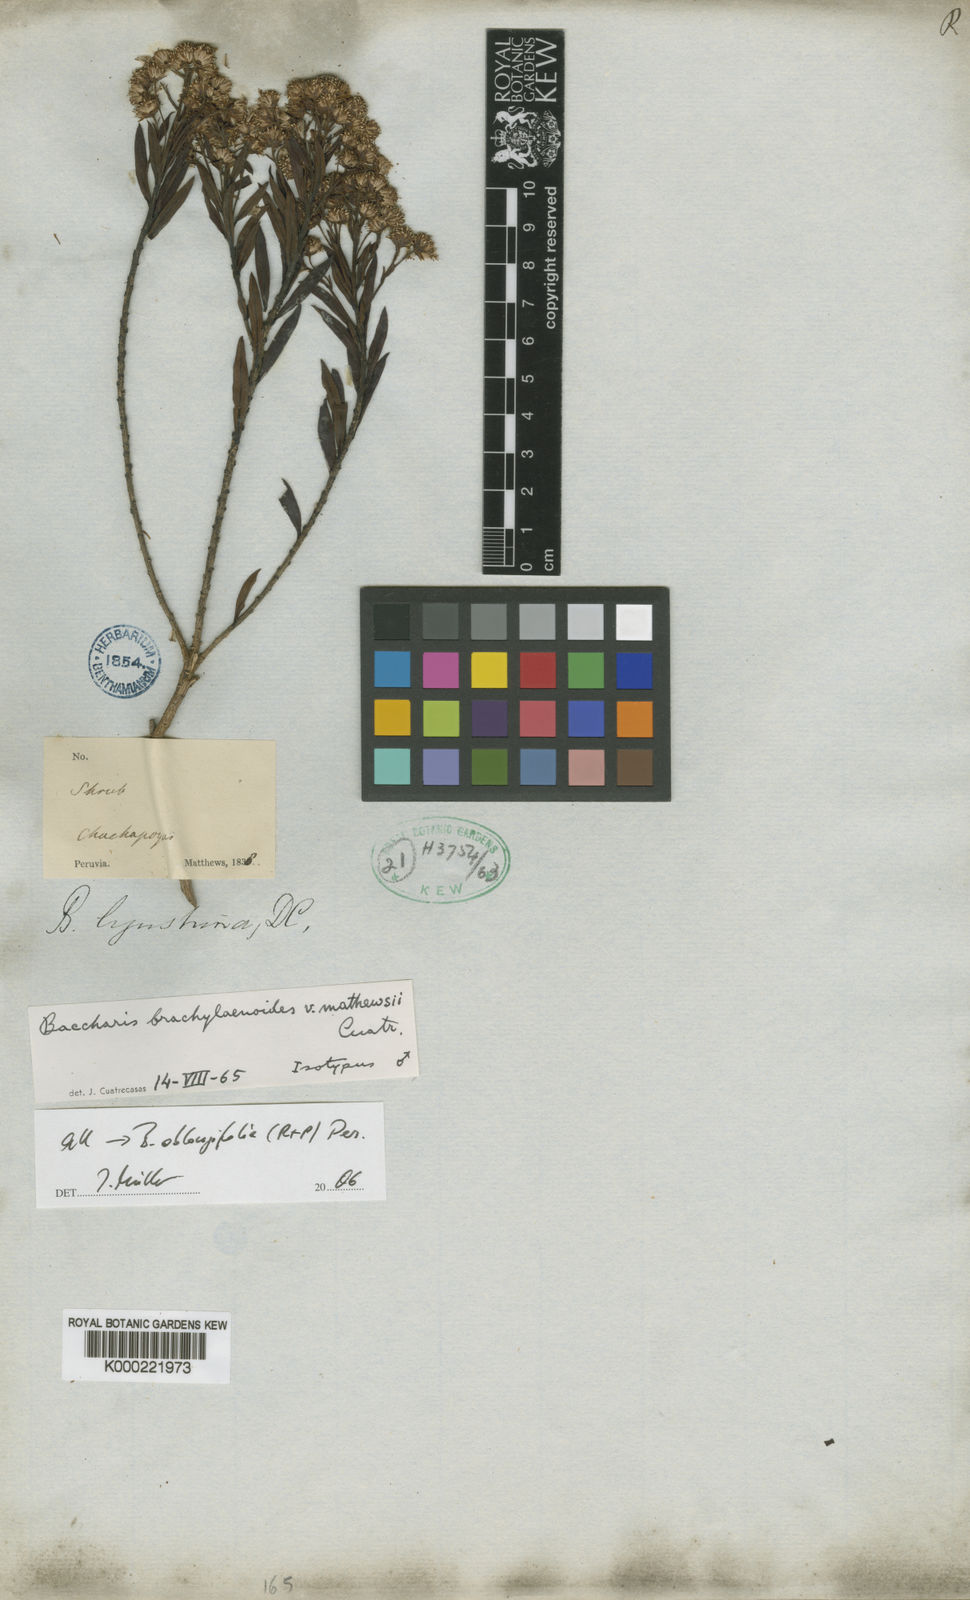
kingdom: Plantae
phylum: Tracheophyta
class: Magnoliopsida
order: Asterales
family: Asteraceae
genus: Baccharis
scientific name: Baccharis oblongifolia
